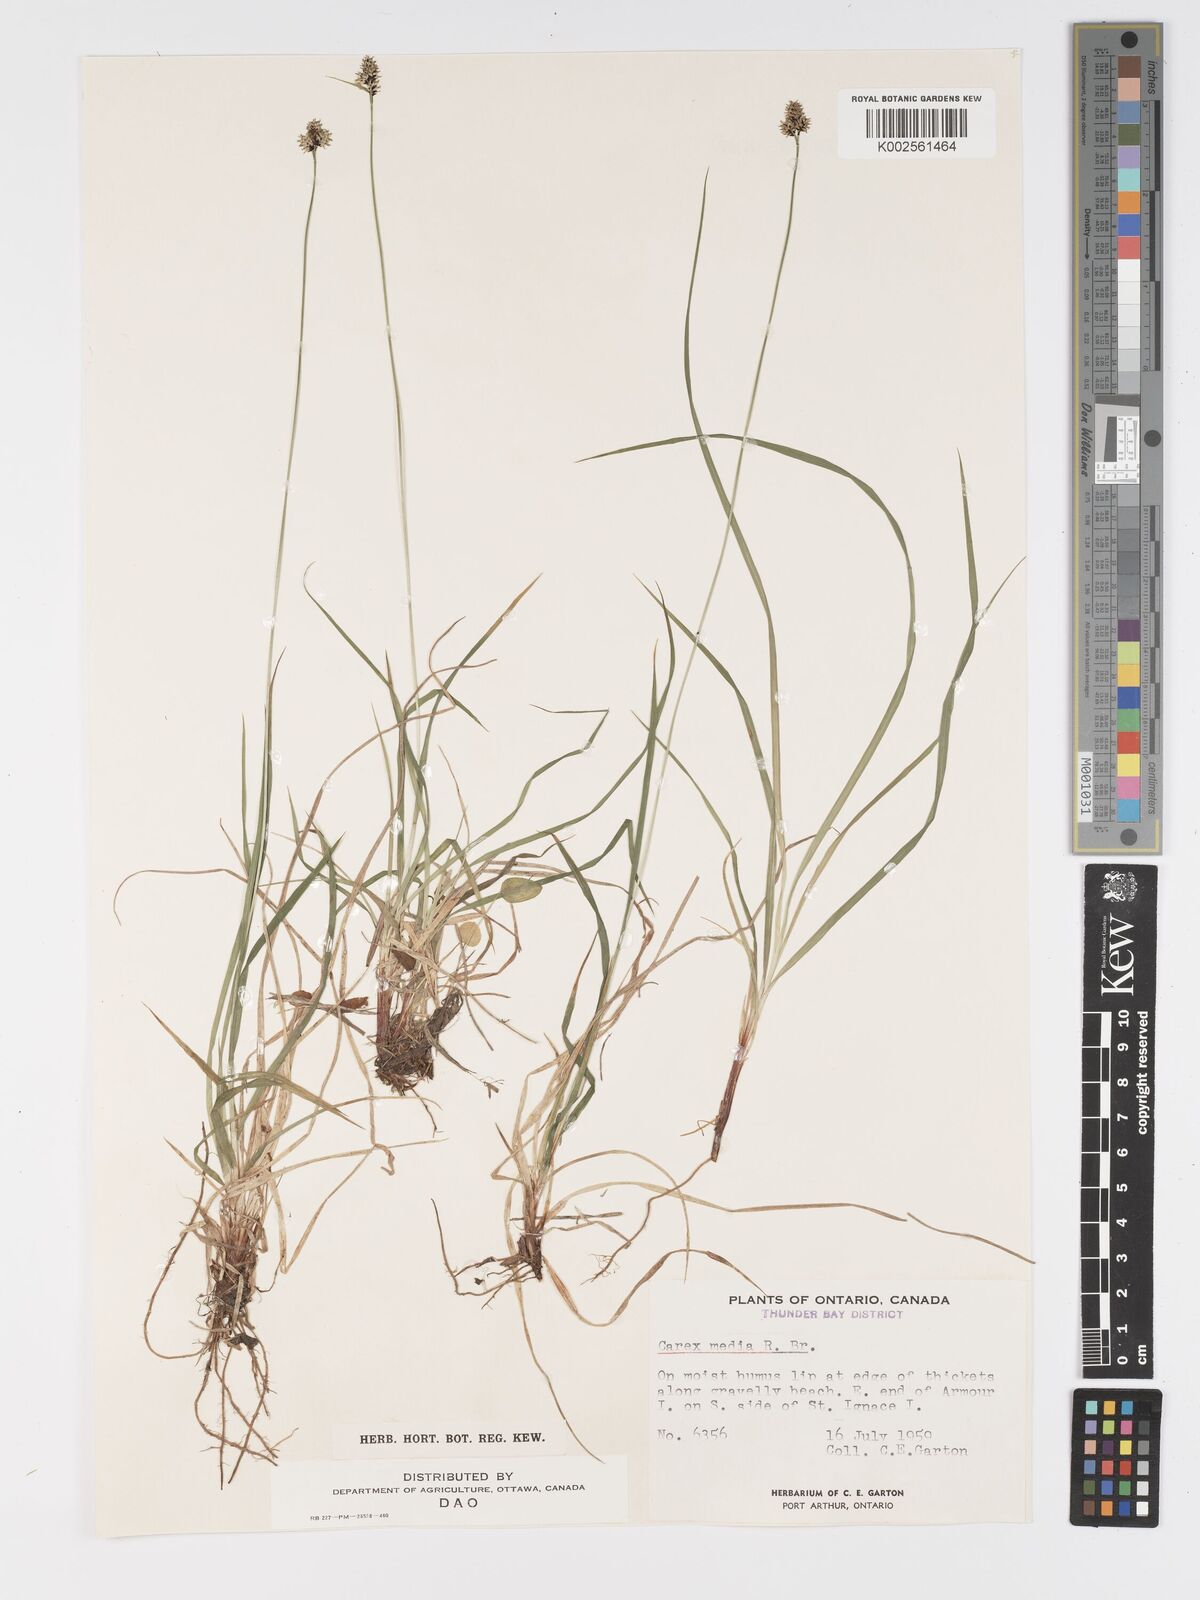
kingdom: Plantae
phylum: Tracheophyta
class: Liliopsida
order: Poales
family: Cyperaceae
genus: Carex
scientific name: Carex media
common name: Alpine sedge
